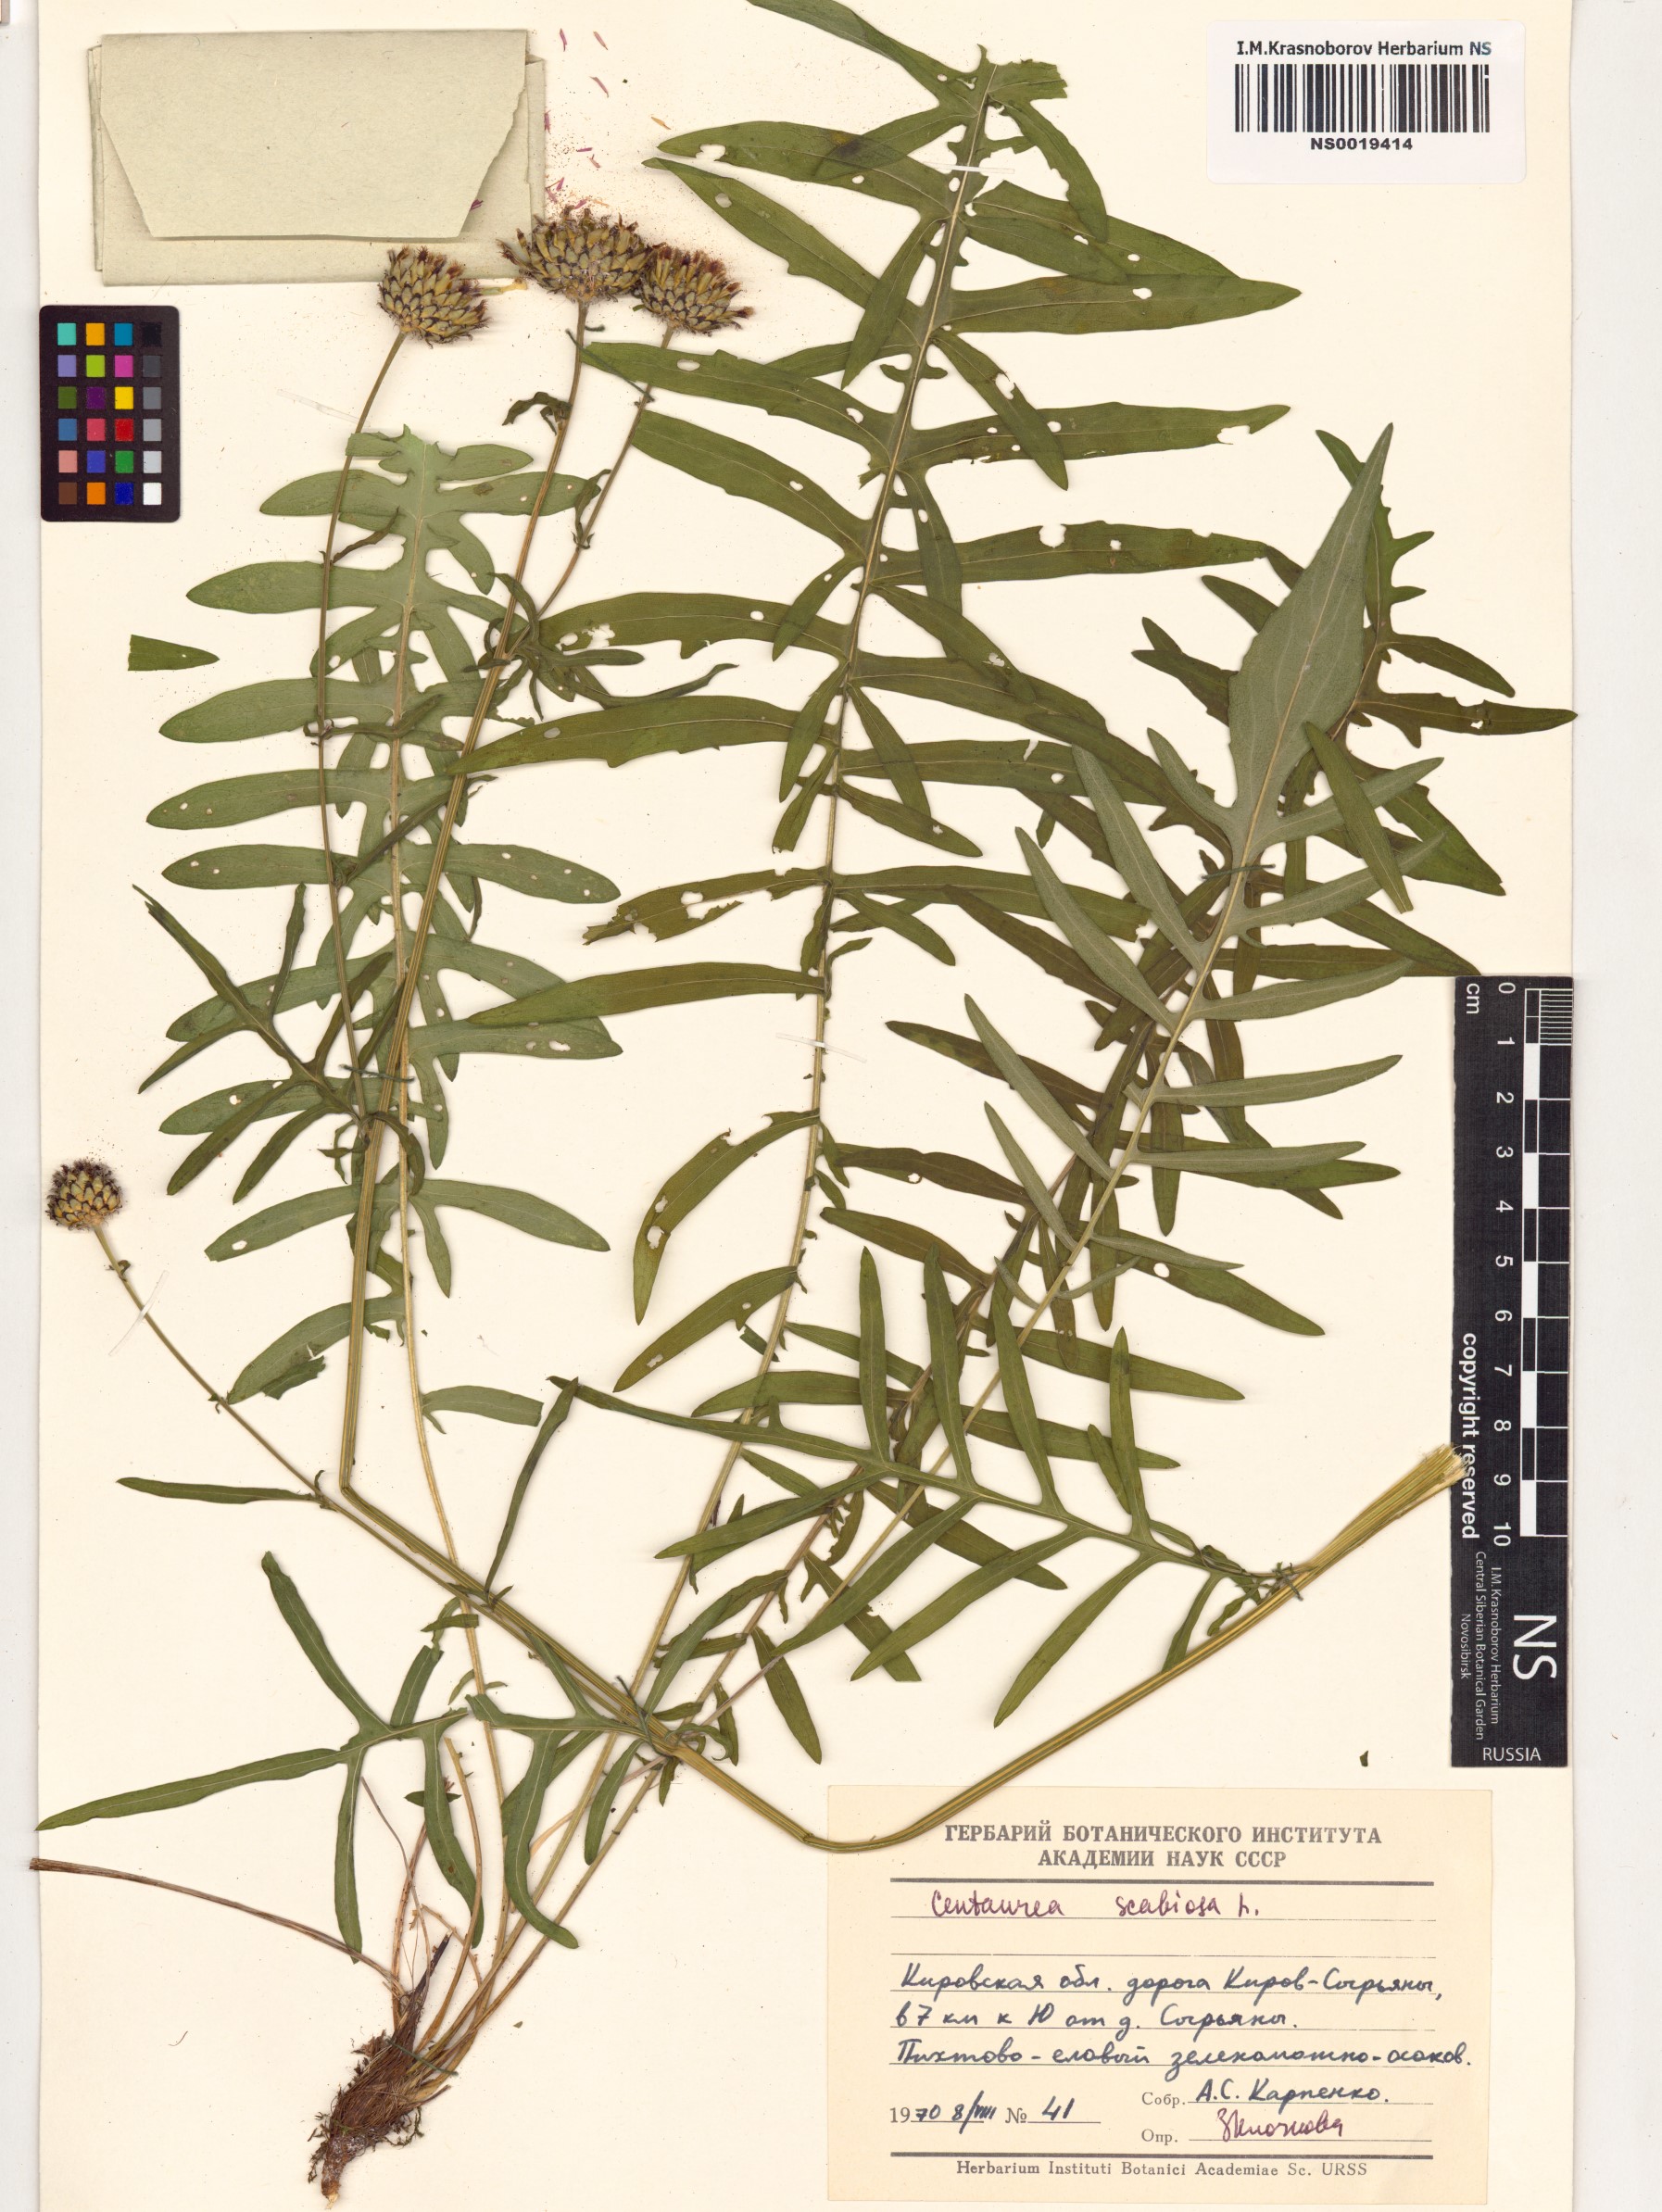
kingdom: Plantae
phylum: Tracheophyta
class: Magnoliopsida
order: Asterales
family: Asteraceae
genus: Centaurea
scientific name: Centaurea scabiosa
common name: Greater knapweed
